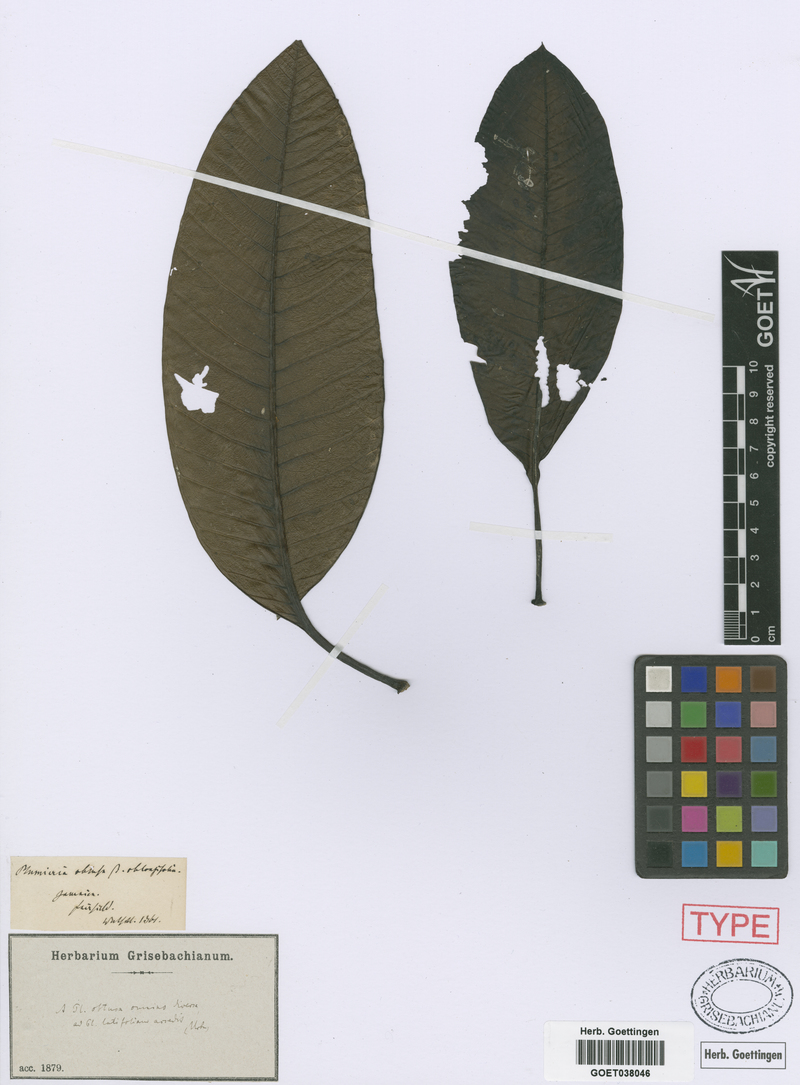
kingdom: Plantae
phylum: Tracheophyta
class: Magnoliopsida
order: Gentianales
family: Apocynaceae
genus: Plumeria
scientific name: Plumeria obtusa
